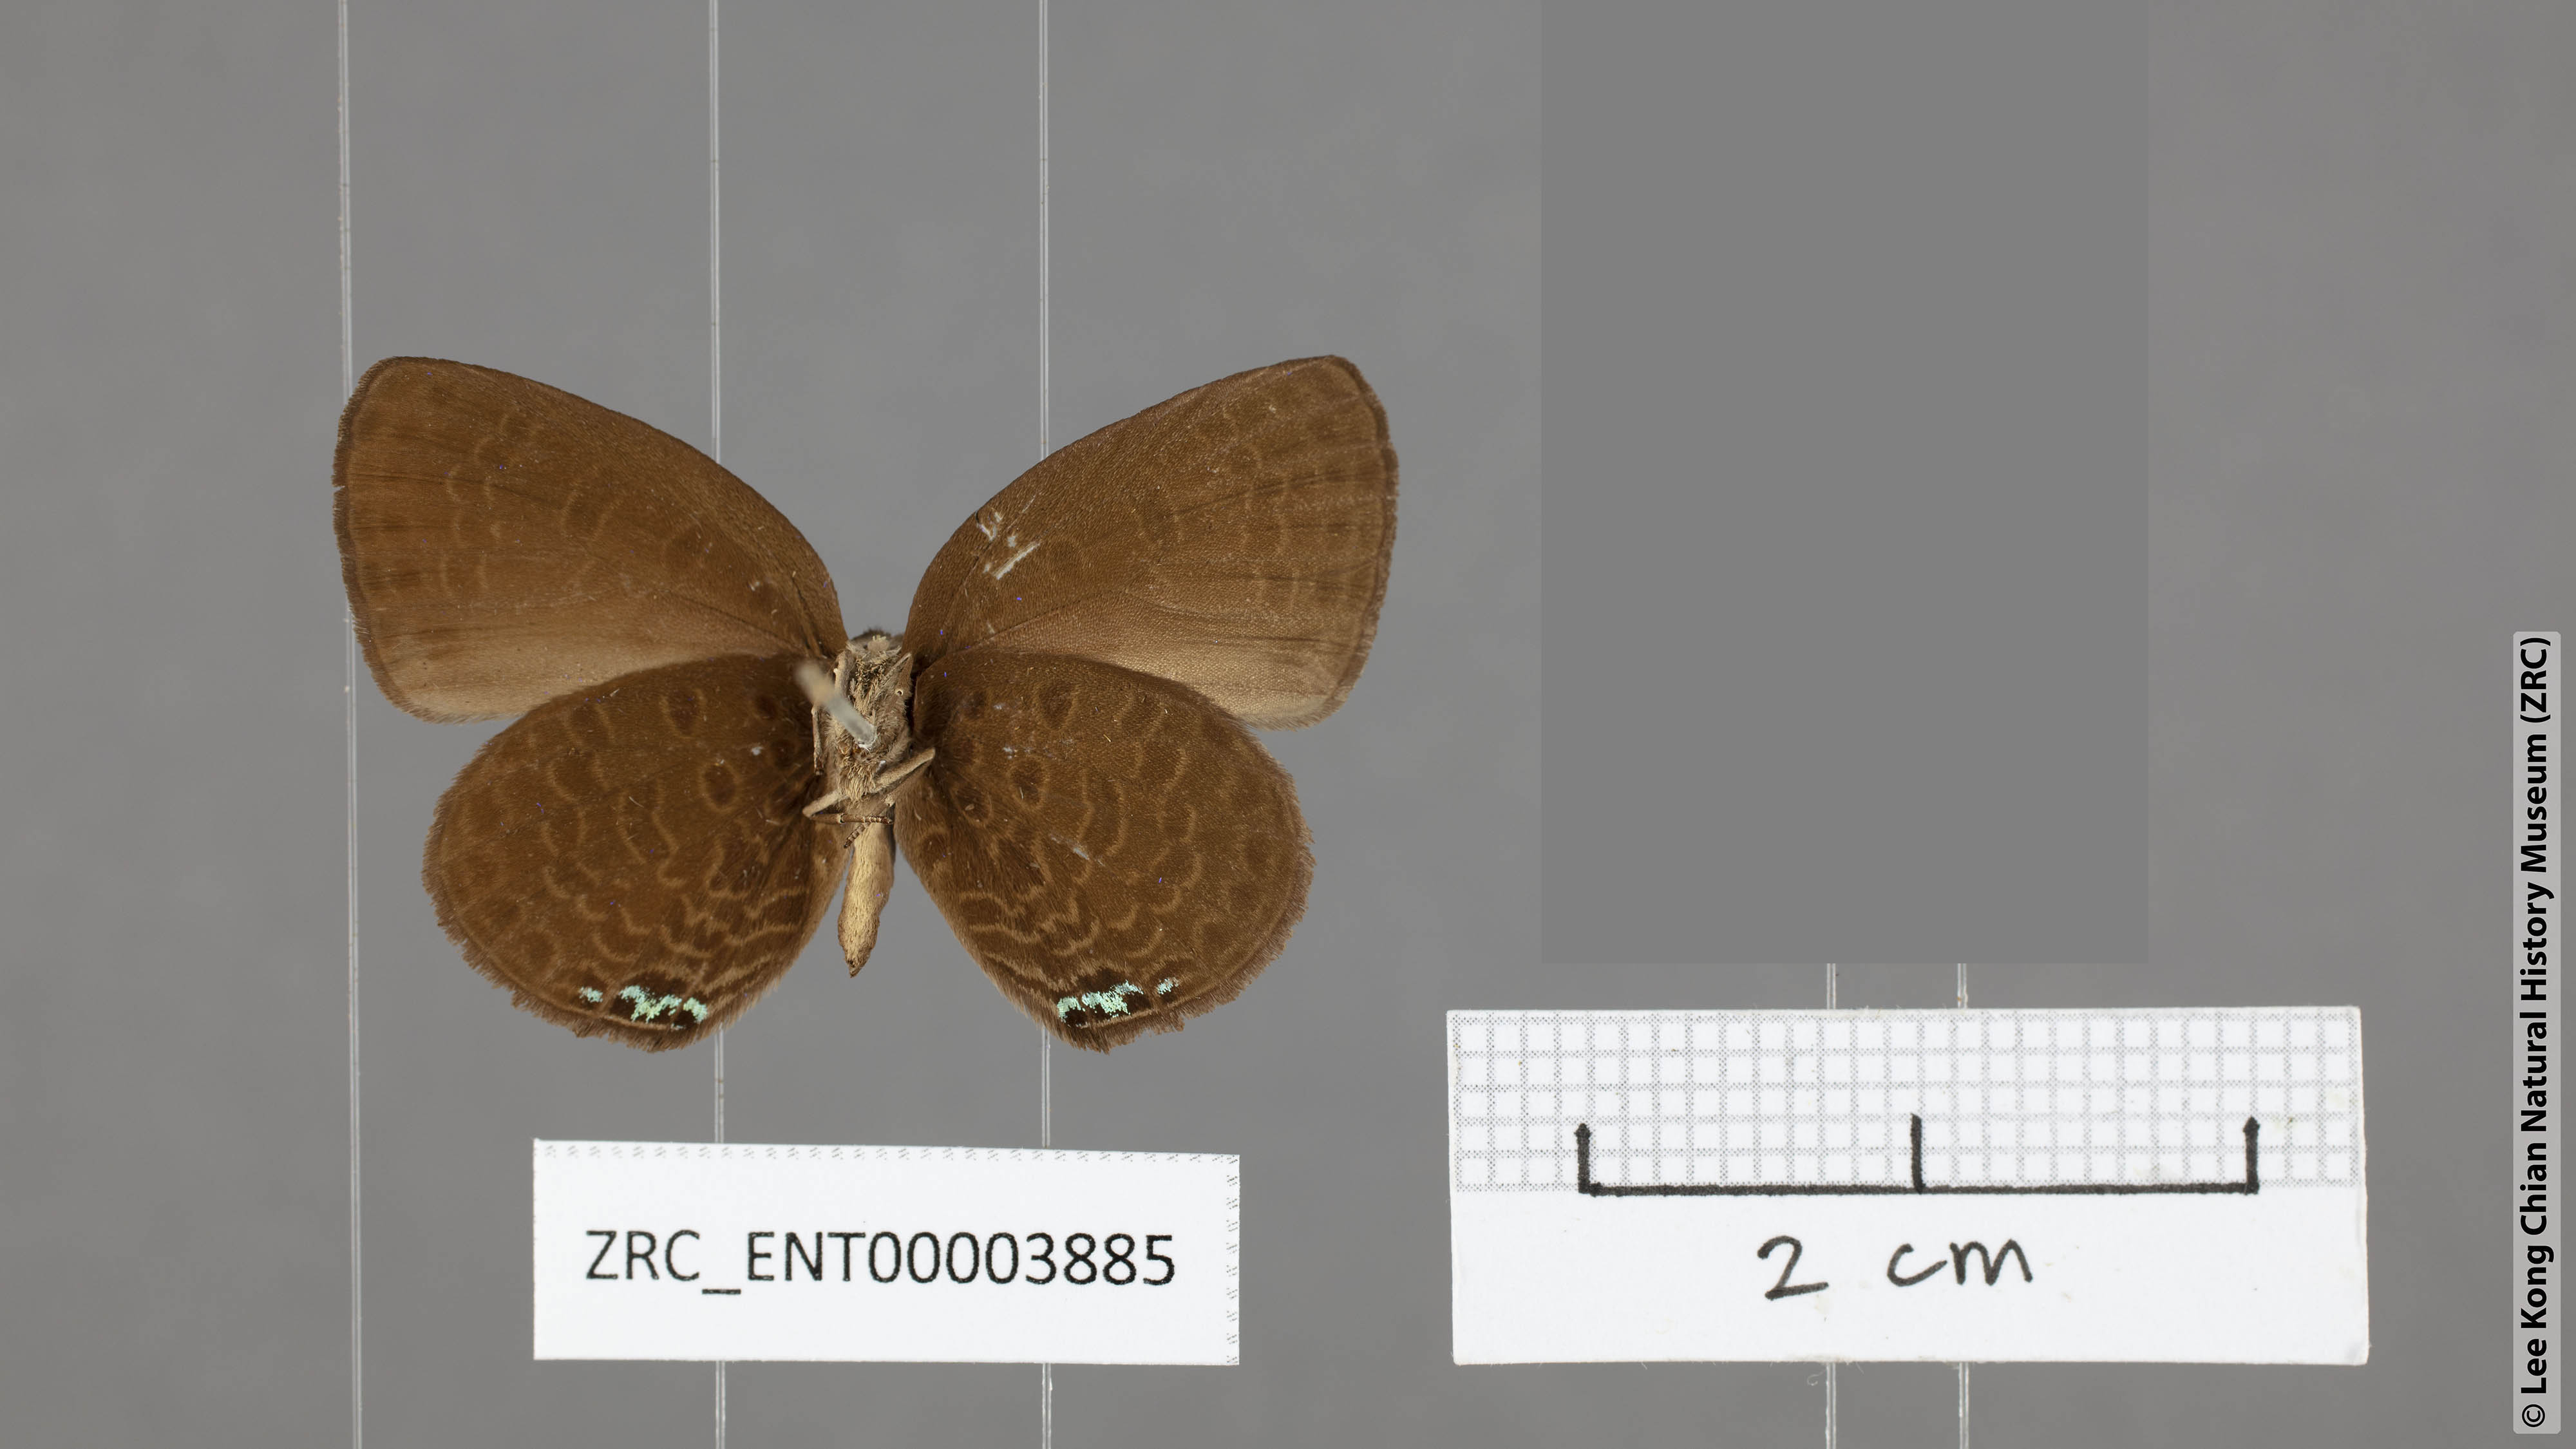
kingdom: Animalia
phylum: Arthropoda
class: Insecta
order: Lepidoptera
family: Lycaenidae
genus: Arhopala
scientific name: Arhopala avathina
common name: Lunulate yellow oakblue
